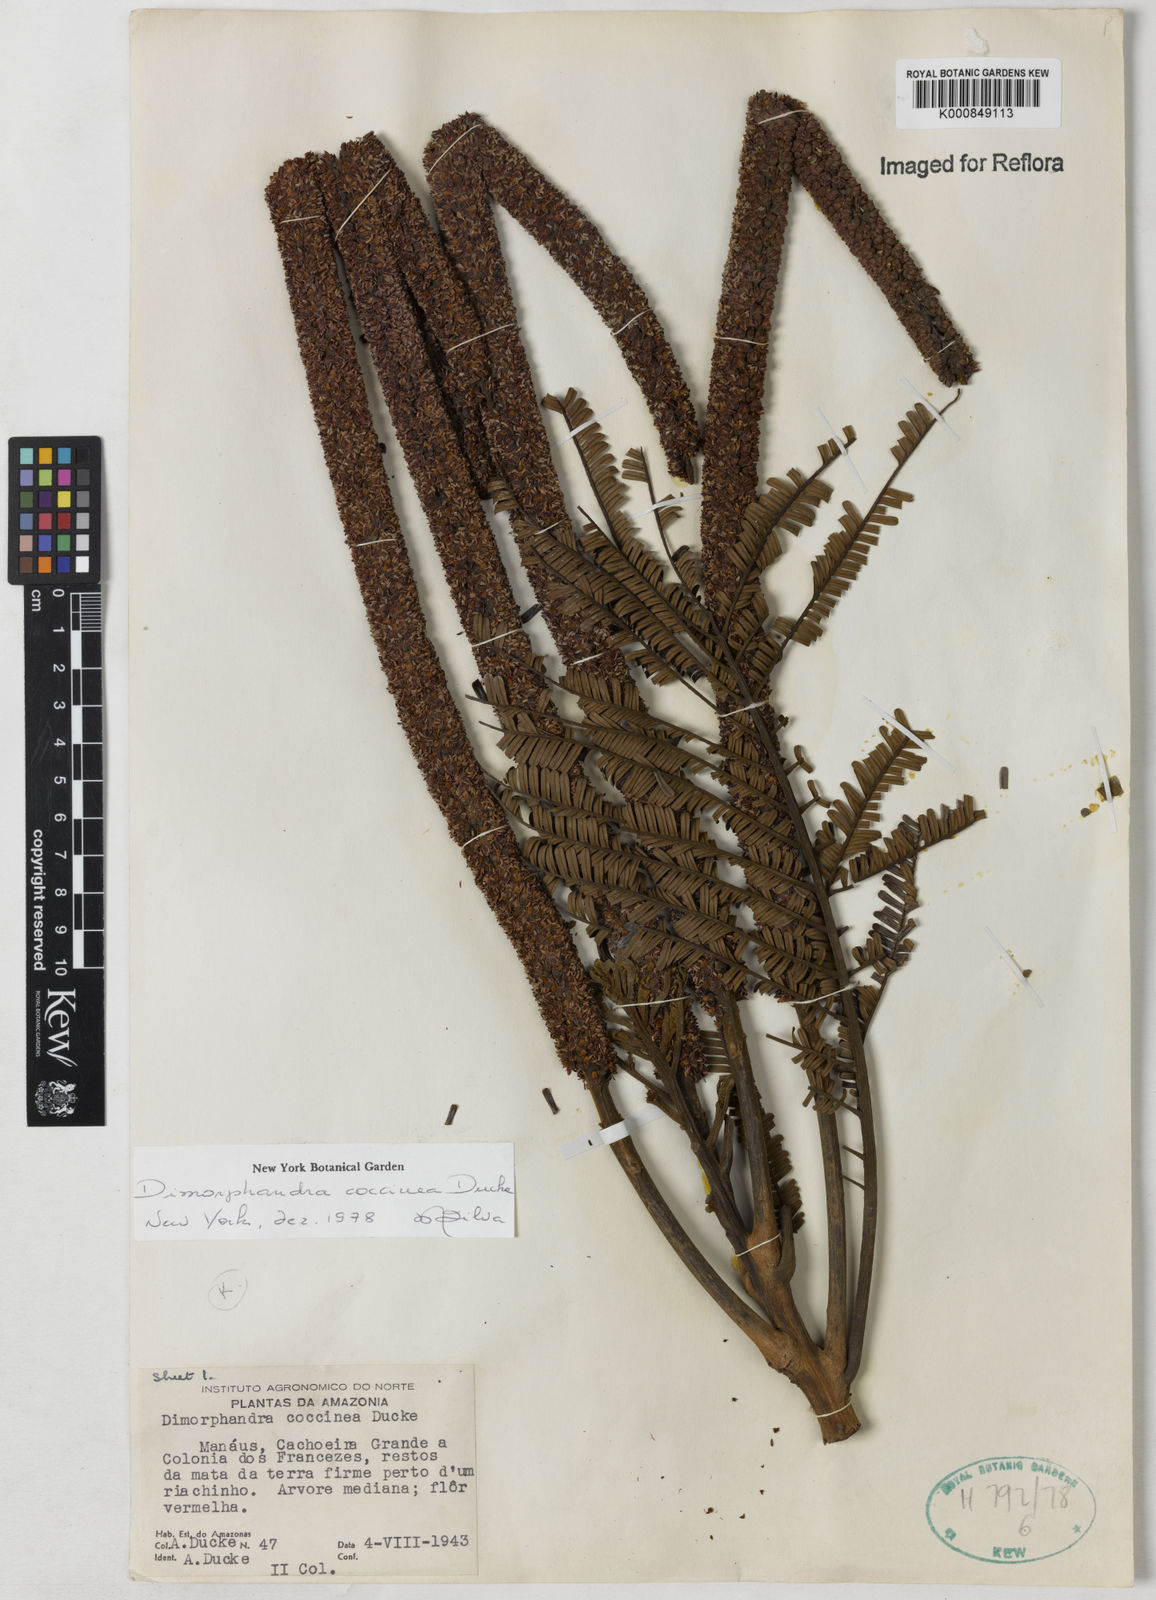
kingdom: Plantae
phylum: Tracheophyta
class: Magnoliopsida
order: Fabales
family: Fabaceae
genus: Dimorphandra
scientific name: Dimorphandra coccinea
